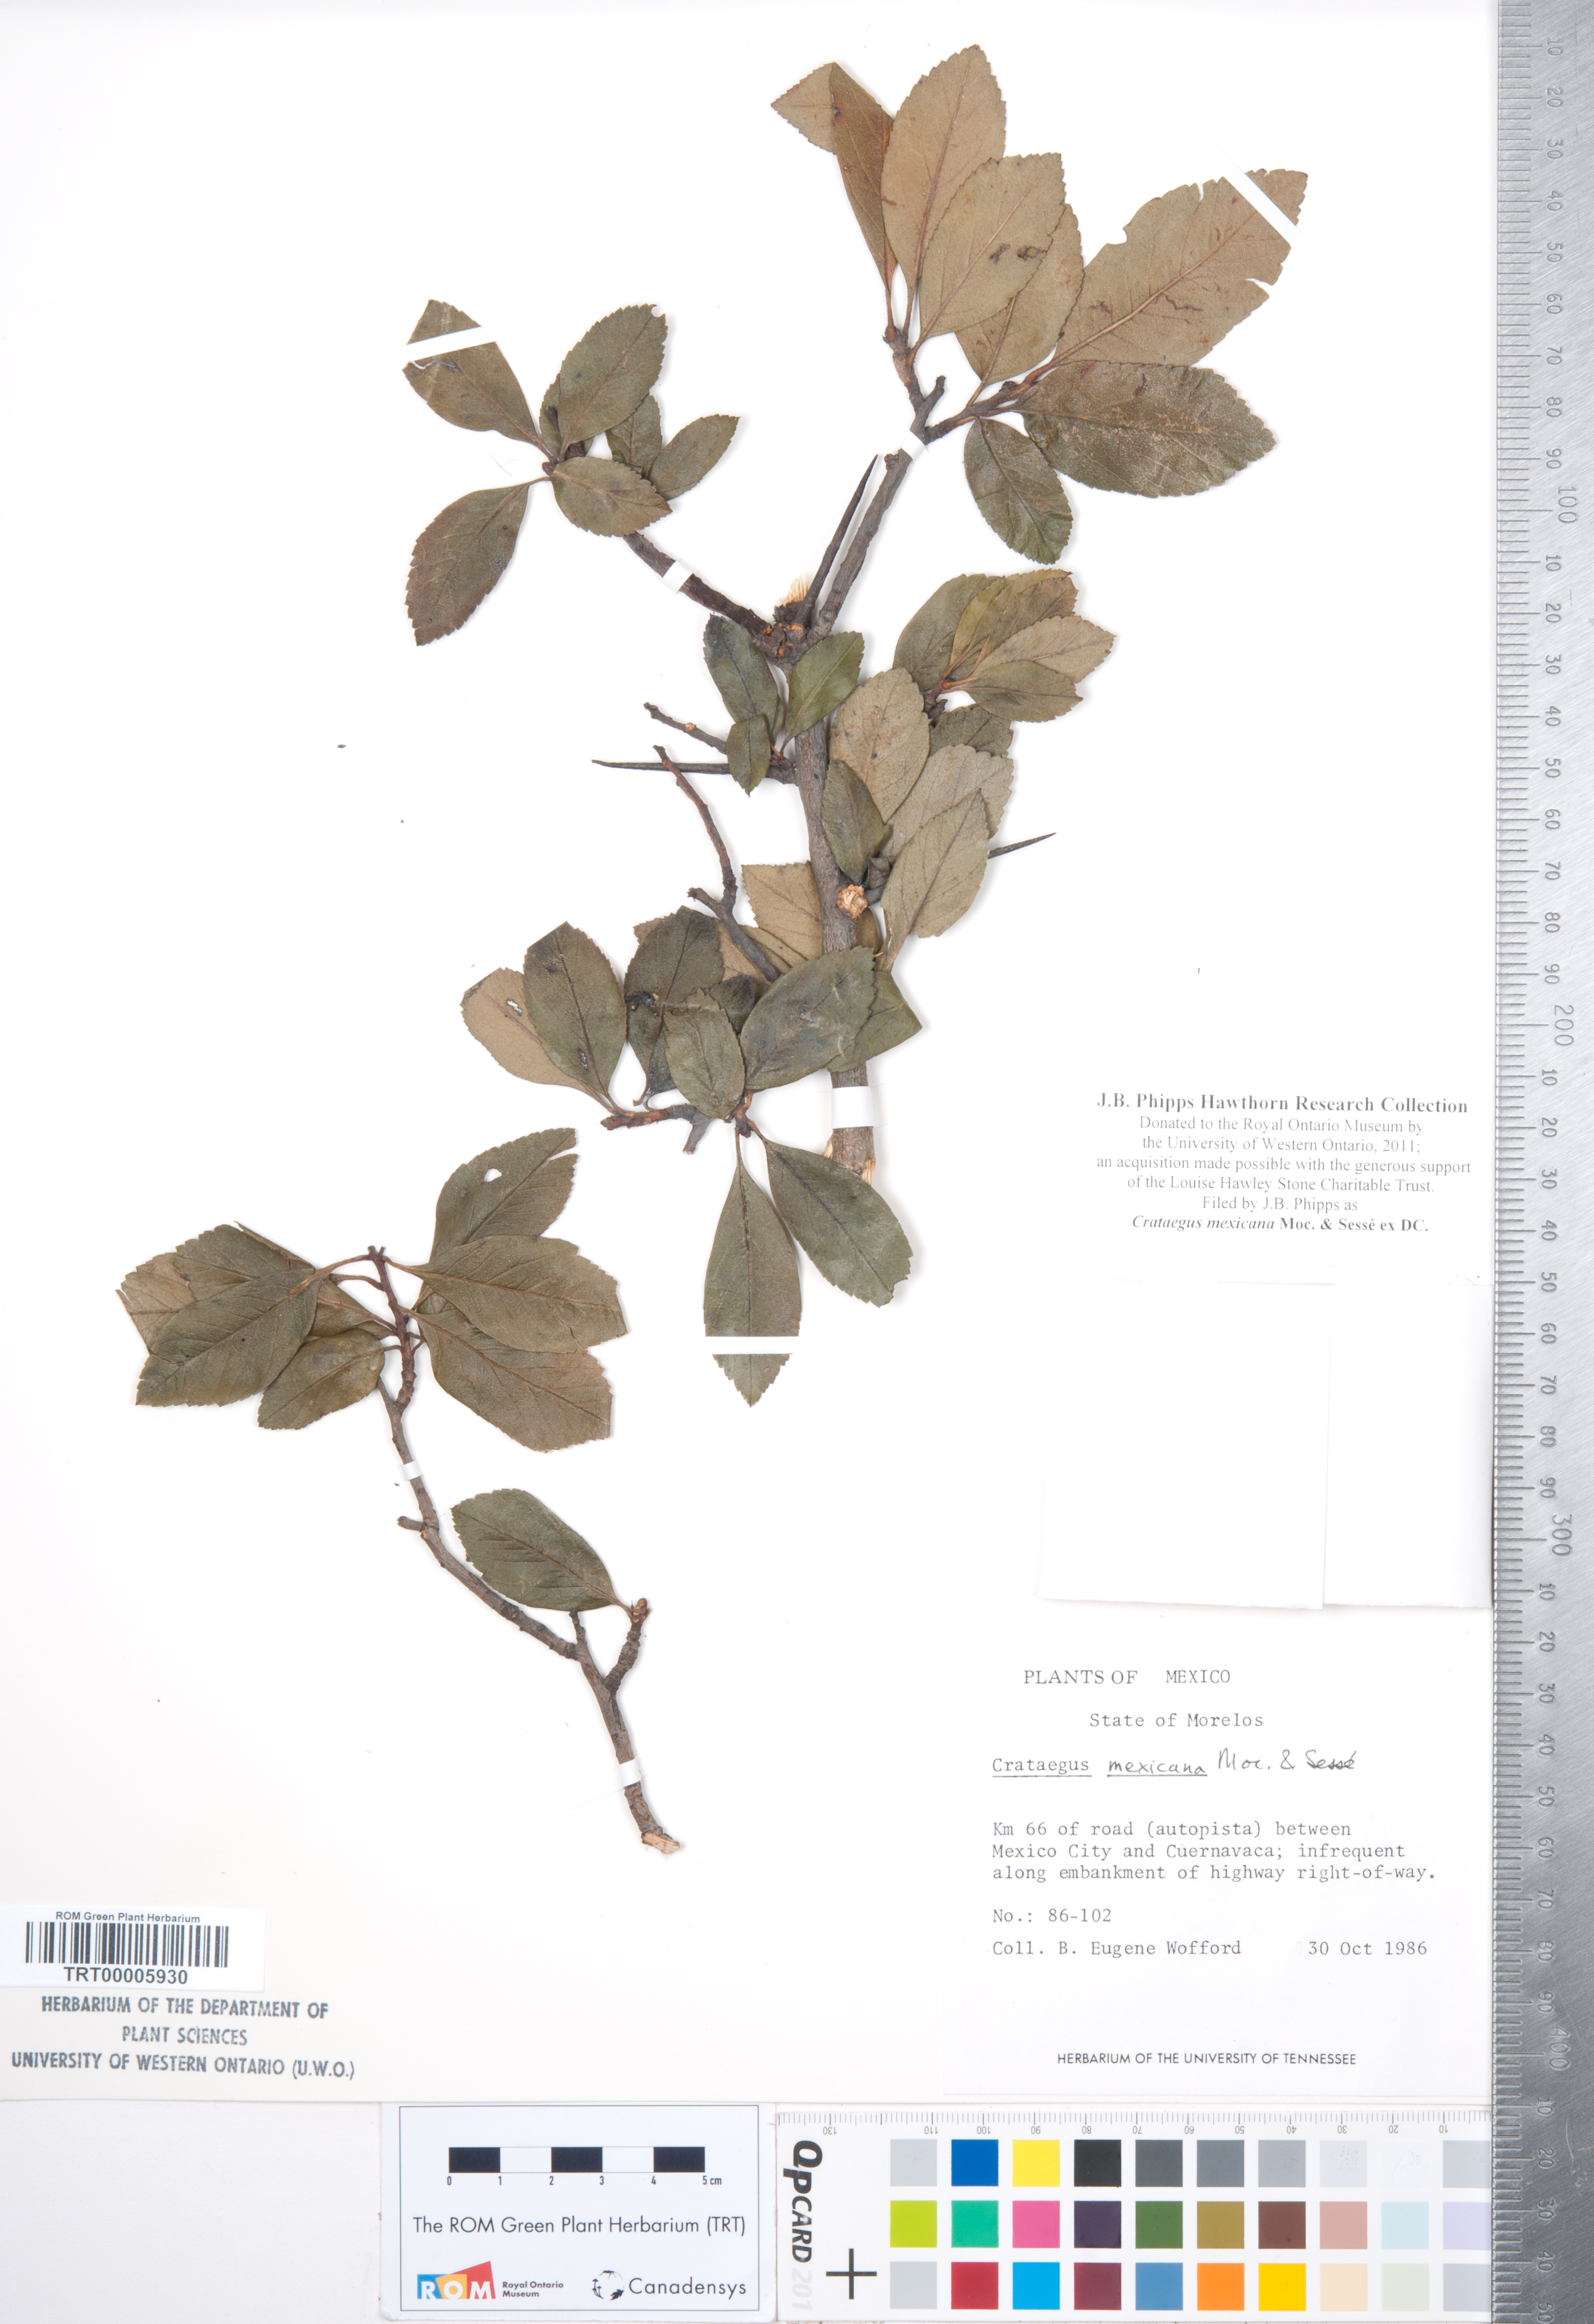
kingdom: Plantae
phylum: Tracheophyta
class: Magnoliopsida
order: Rosales
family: Rosaceae
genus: Crataegus
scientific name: Crataegus mexicana
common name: Mexican hawthorn
